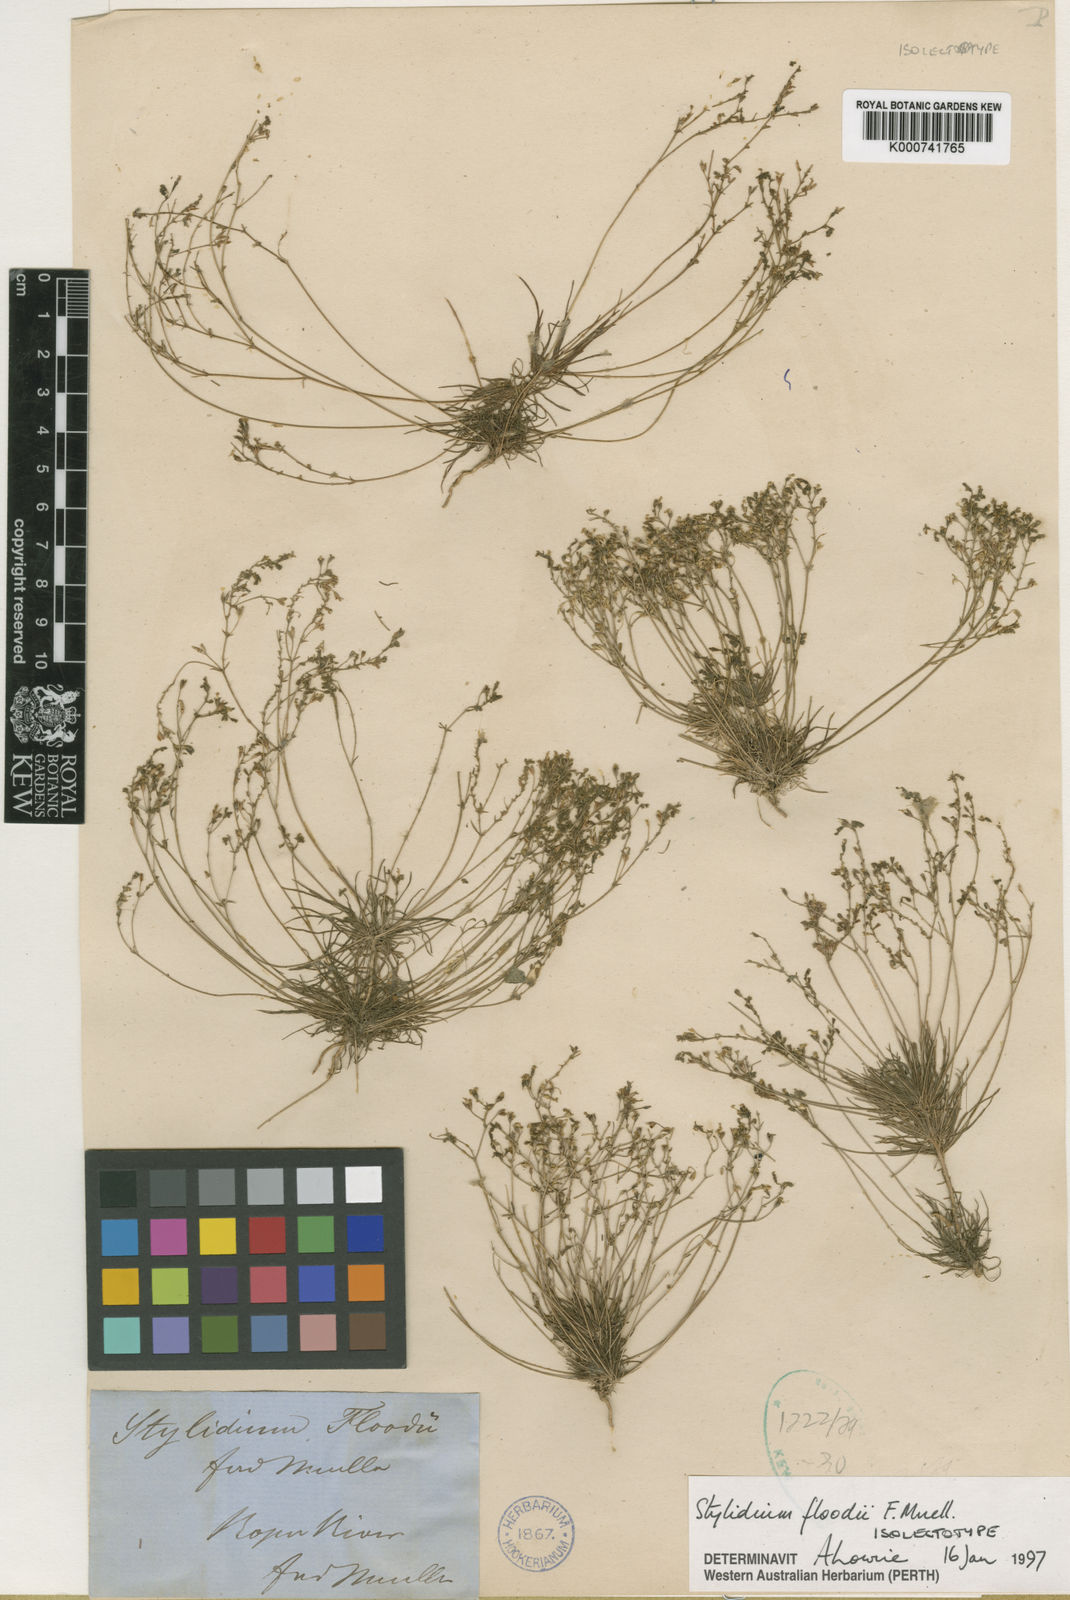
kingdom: Plantae
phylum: Tracheophyta
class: Magnoliopsida
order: Asterales
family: Stylidiaceae
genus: Stylidium
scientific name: Stylidium floodii
